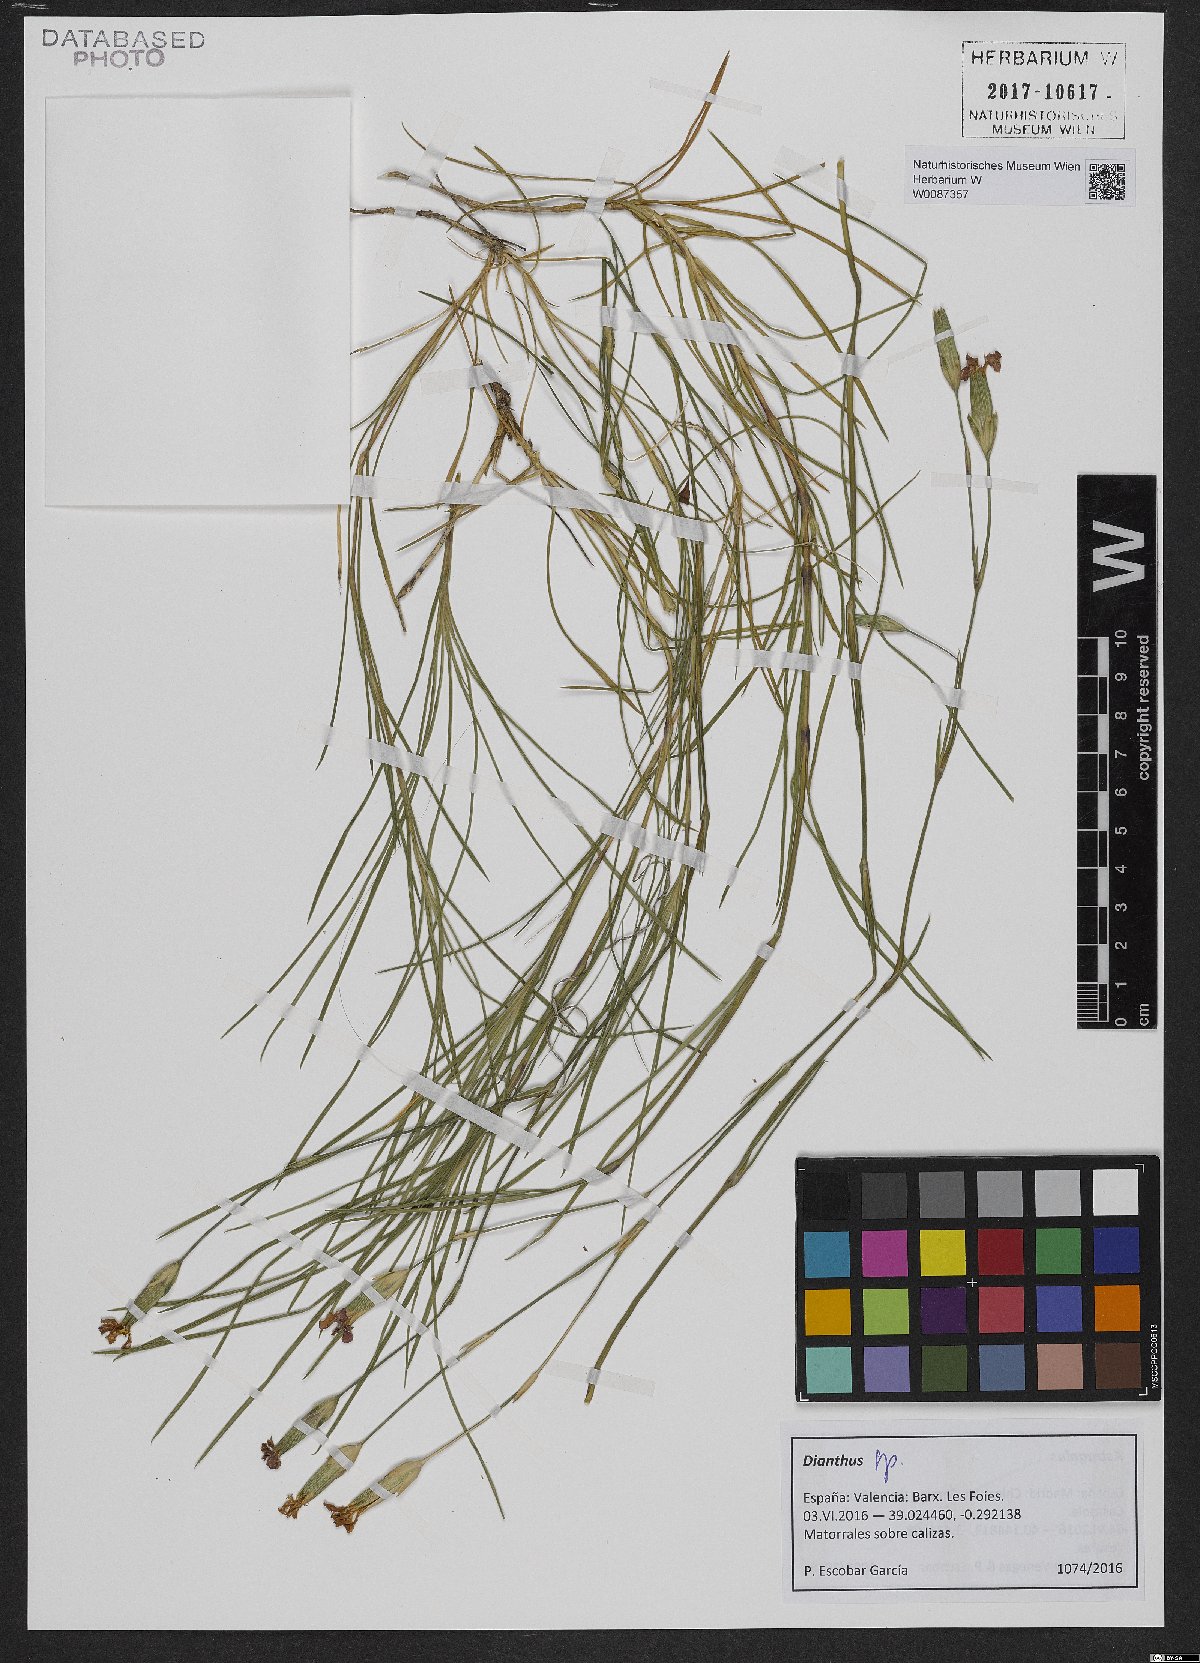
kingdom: Plantae
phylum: Tracheophyta
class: Magnoliopsida
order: Caryophyllales
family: Caryophyllaceae
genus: Dianthus
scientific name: Dianthus
